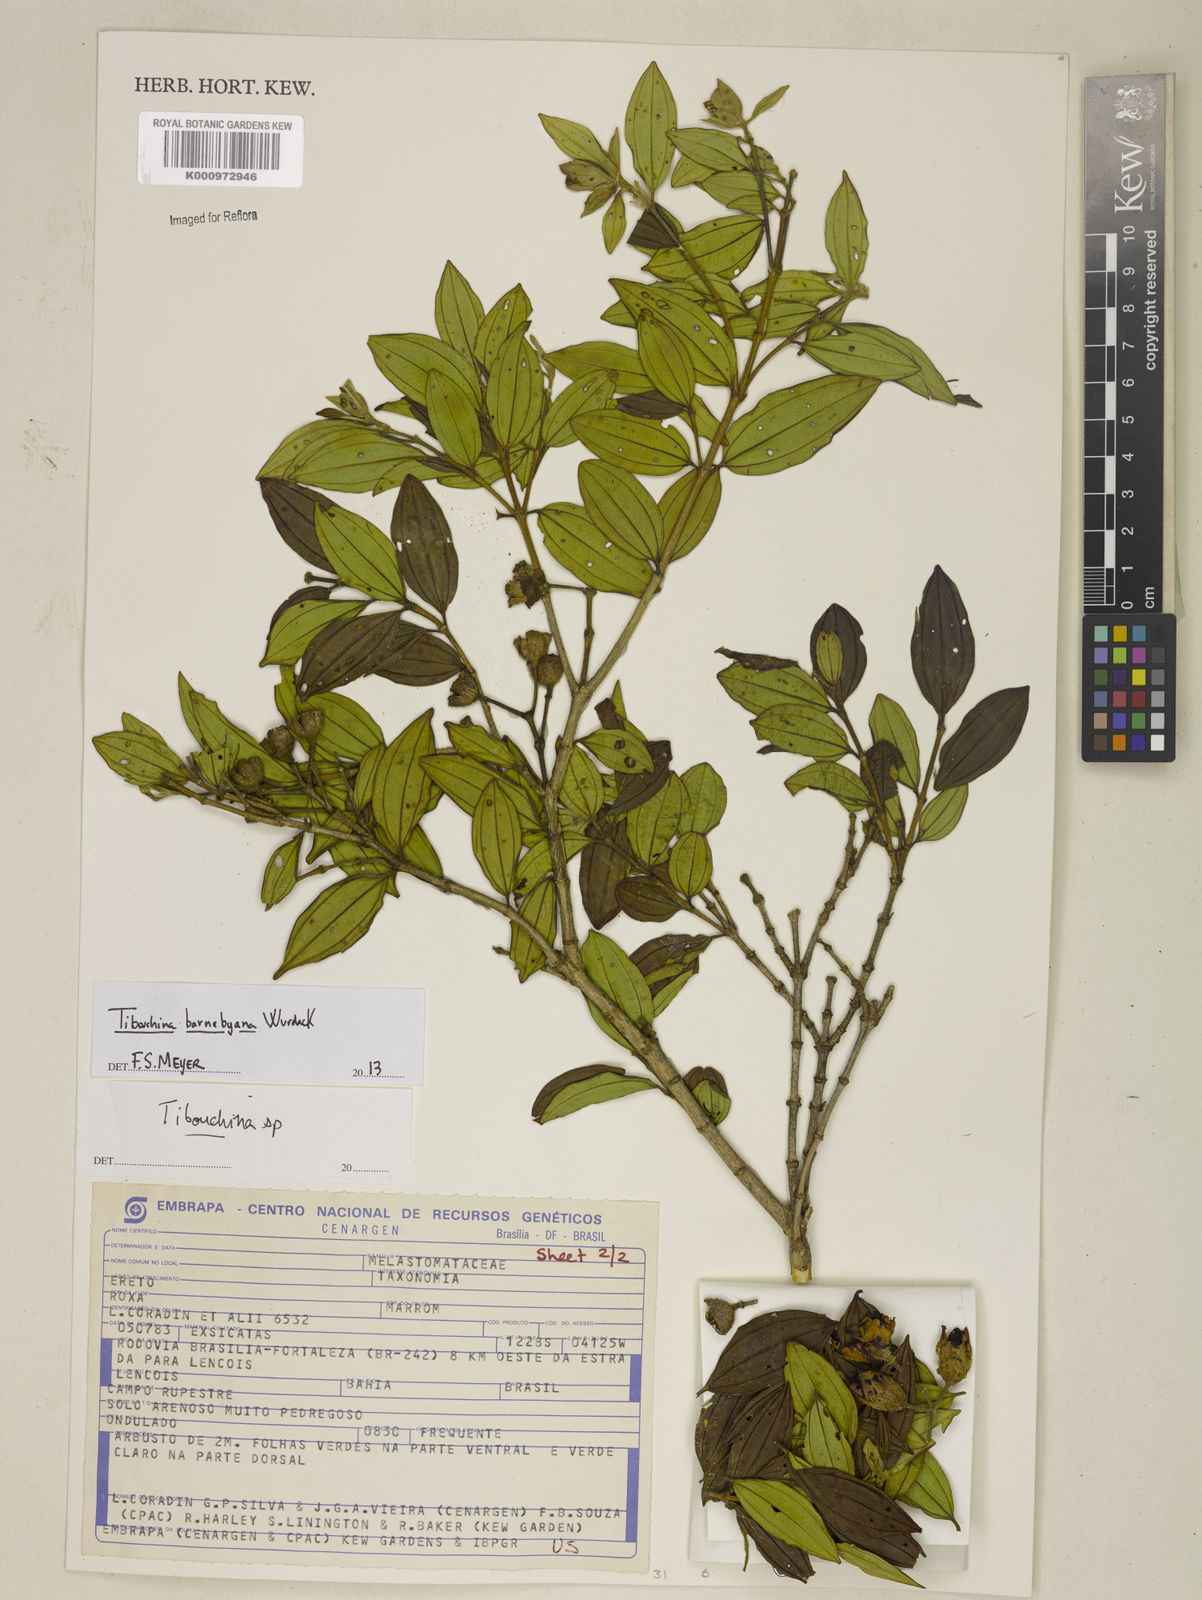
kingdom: Plantae
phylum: Tracheophyta
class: Magnoliopsida
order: Myrtales
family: Melastomataceae
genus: Pleroma
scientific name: Pleroma barnebyanum
